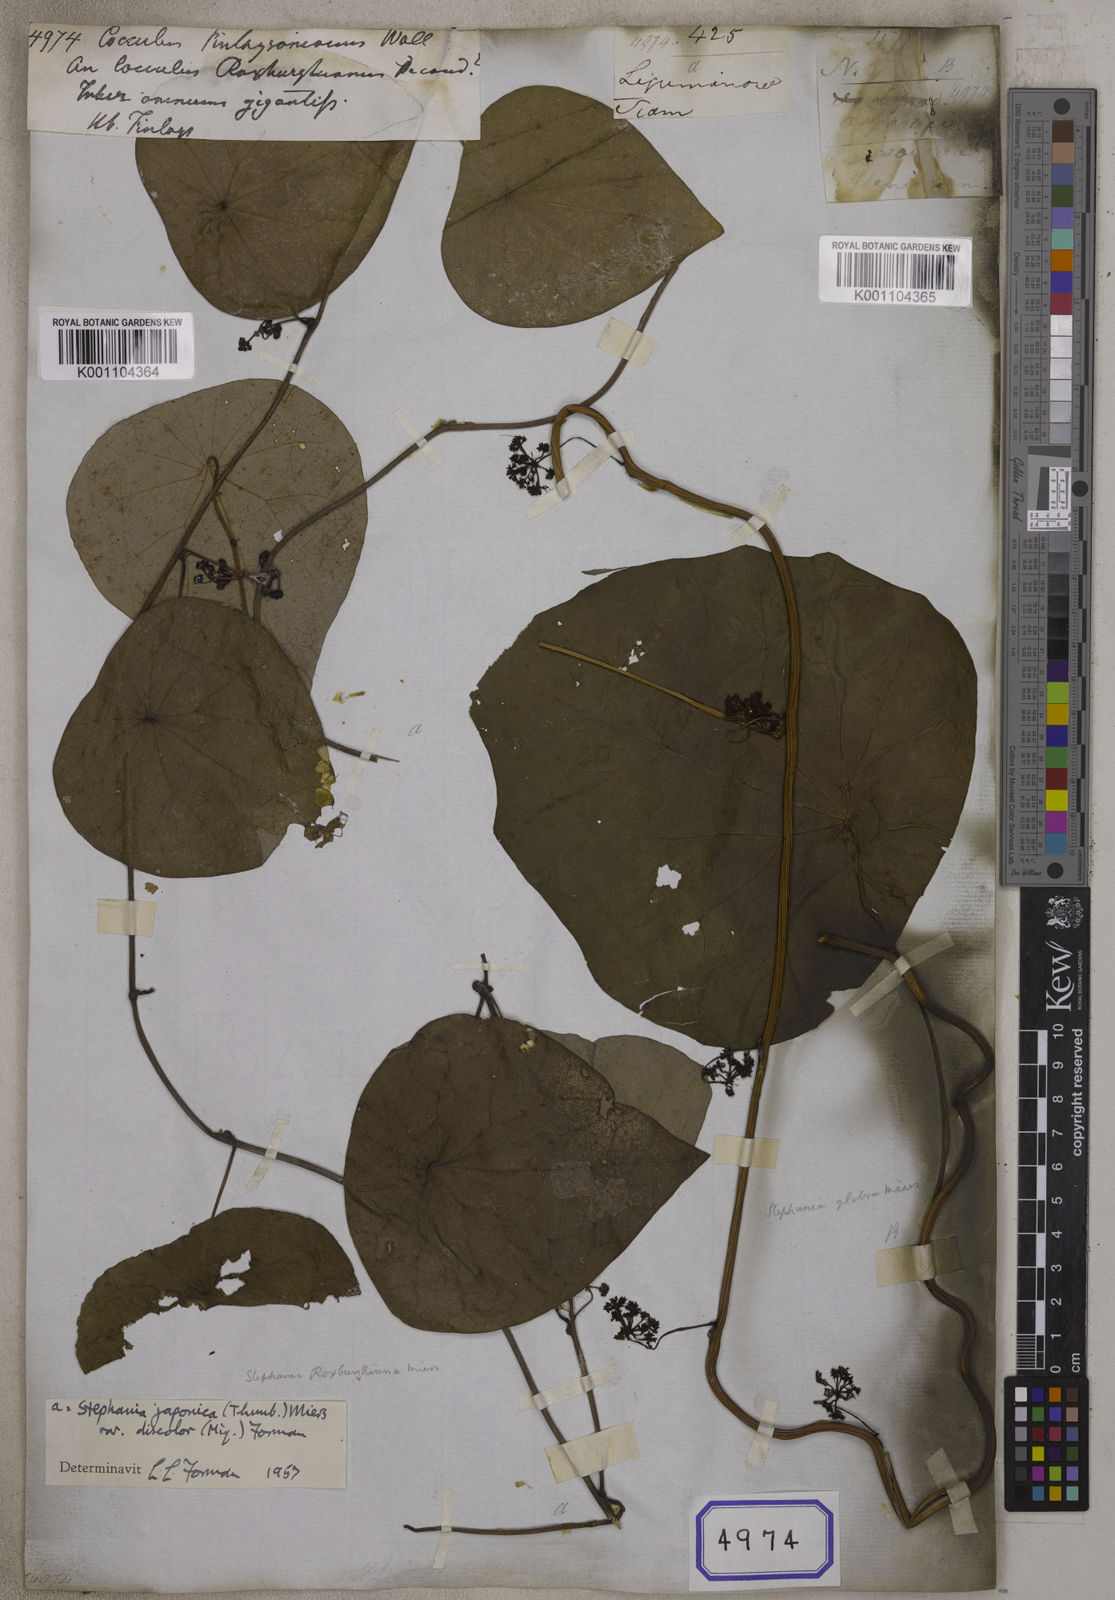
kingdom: Plantae
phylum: Tracheophyta
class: Magnoliopsida
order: Ranunculales
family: Menispermaceae
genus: Stephania
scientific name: Stephania japonica
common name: Snake vine
